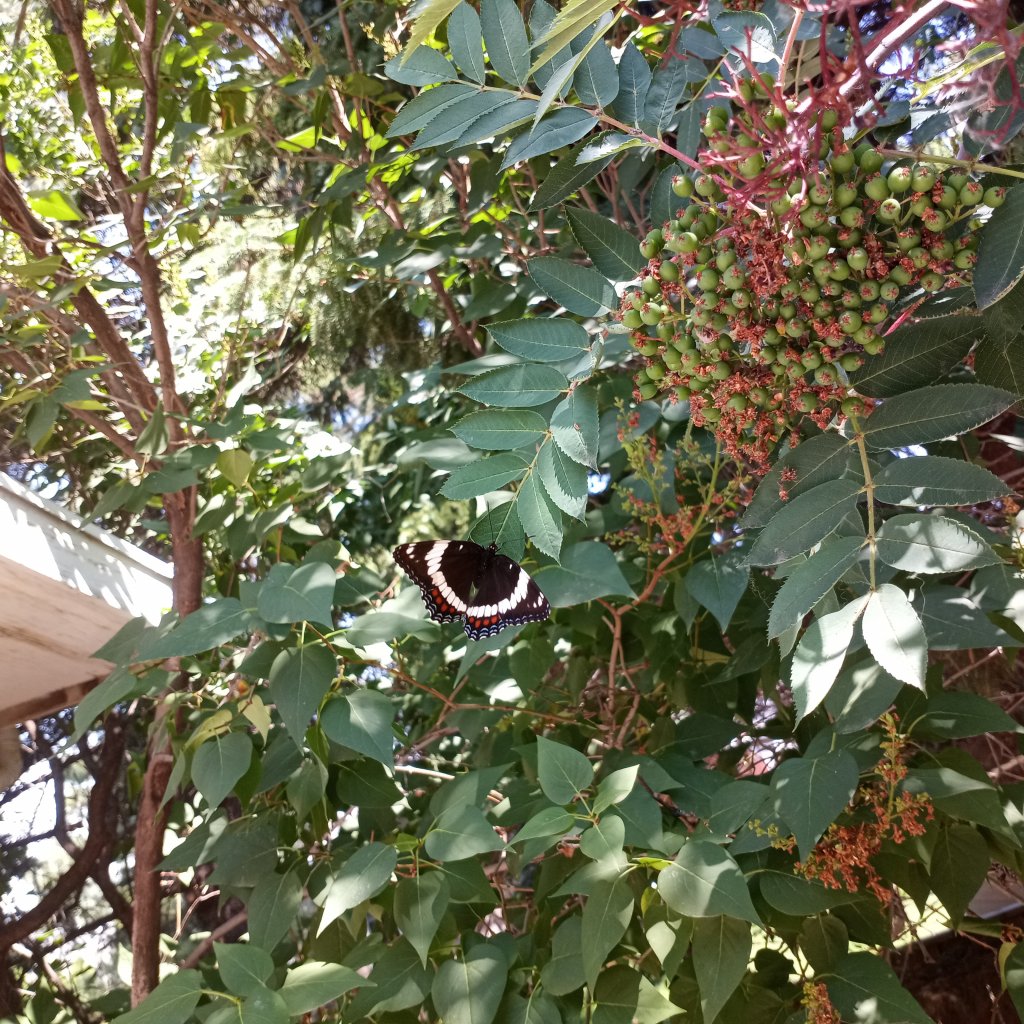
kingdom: Animalia
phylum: Arthropoda
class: Insecta
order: Lepidoptera
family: Nymphalidae
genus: Limenitis
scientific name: Limenitis arthemis
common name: Red-spotted Admiral
